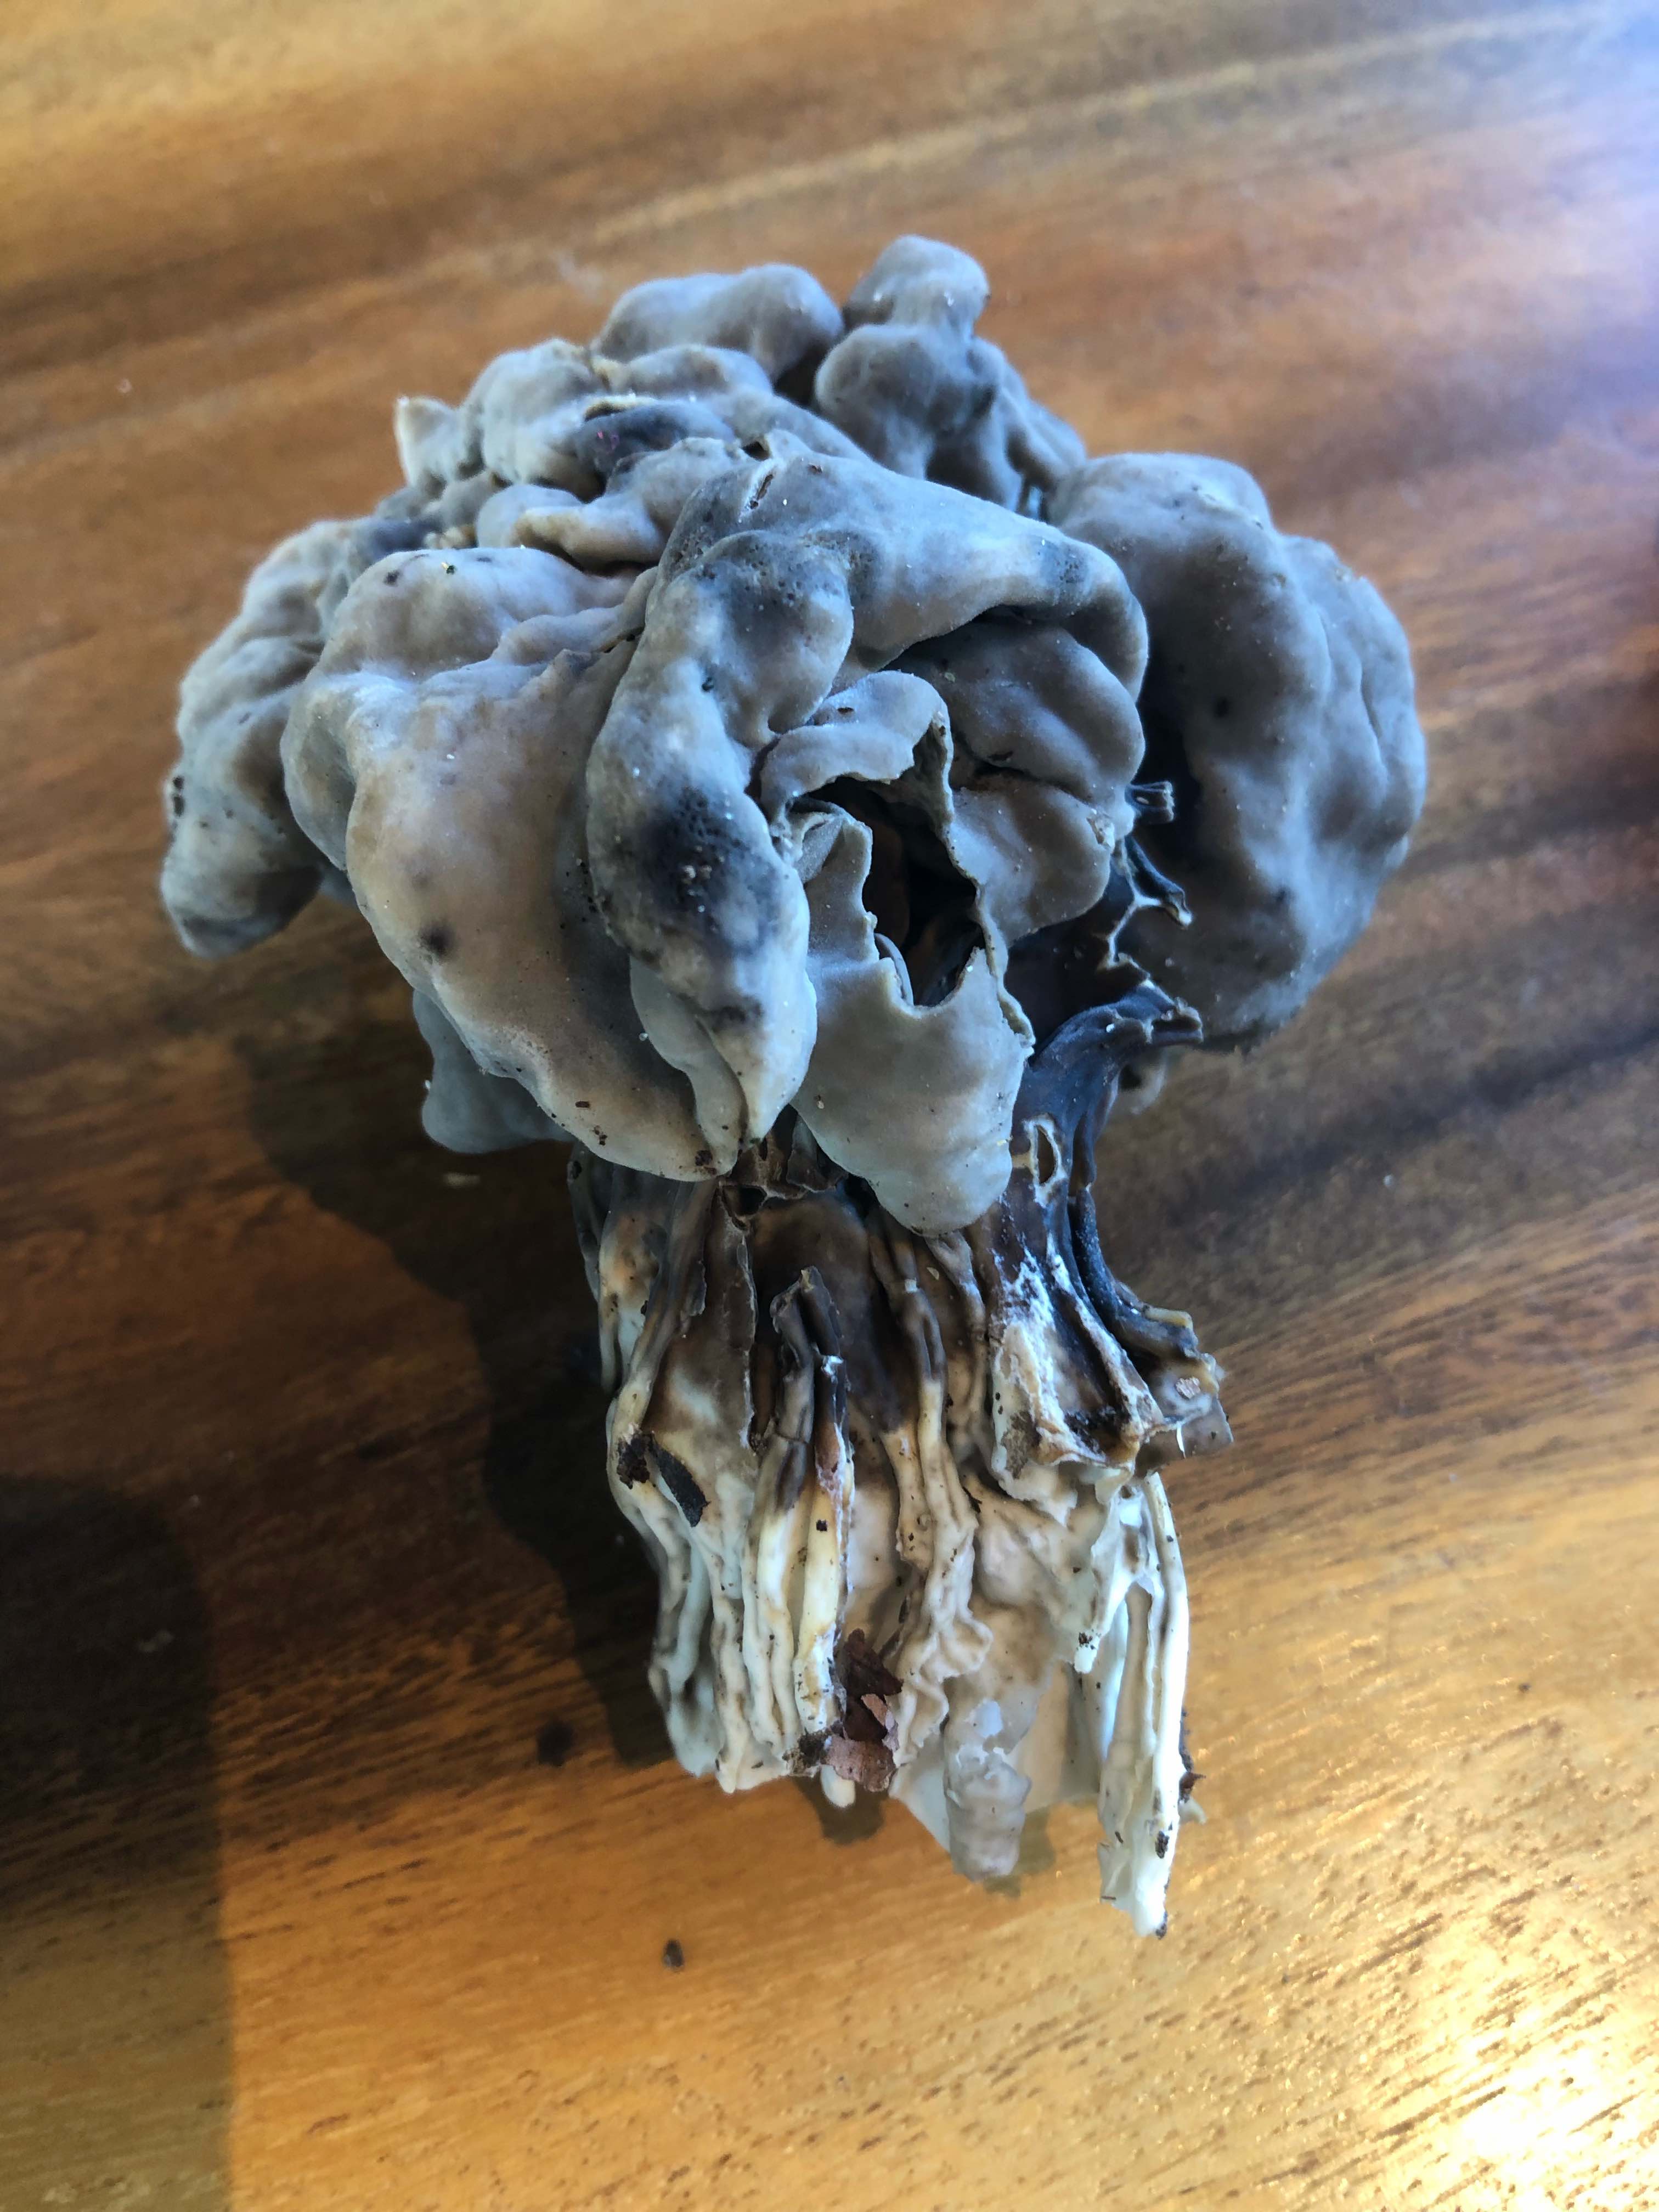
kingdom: Fungi
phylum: Ascomycota
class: Pezizomycetes
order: Pezizales
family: Helvellaceae
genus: Helvella
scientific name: Helvella lacunosa
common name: grubet foldhat
